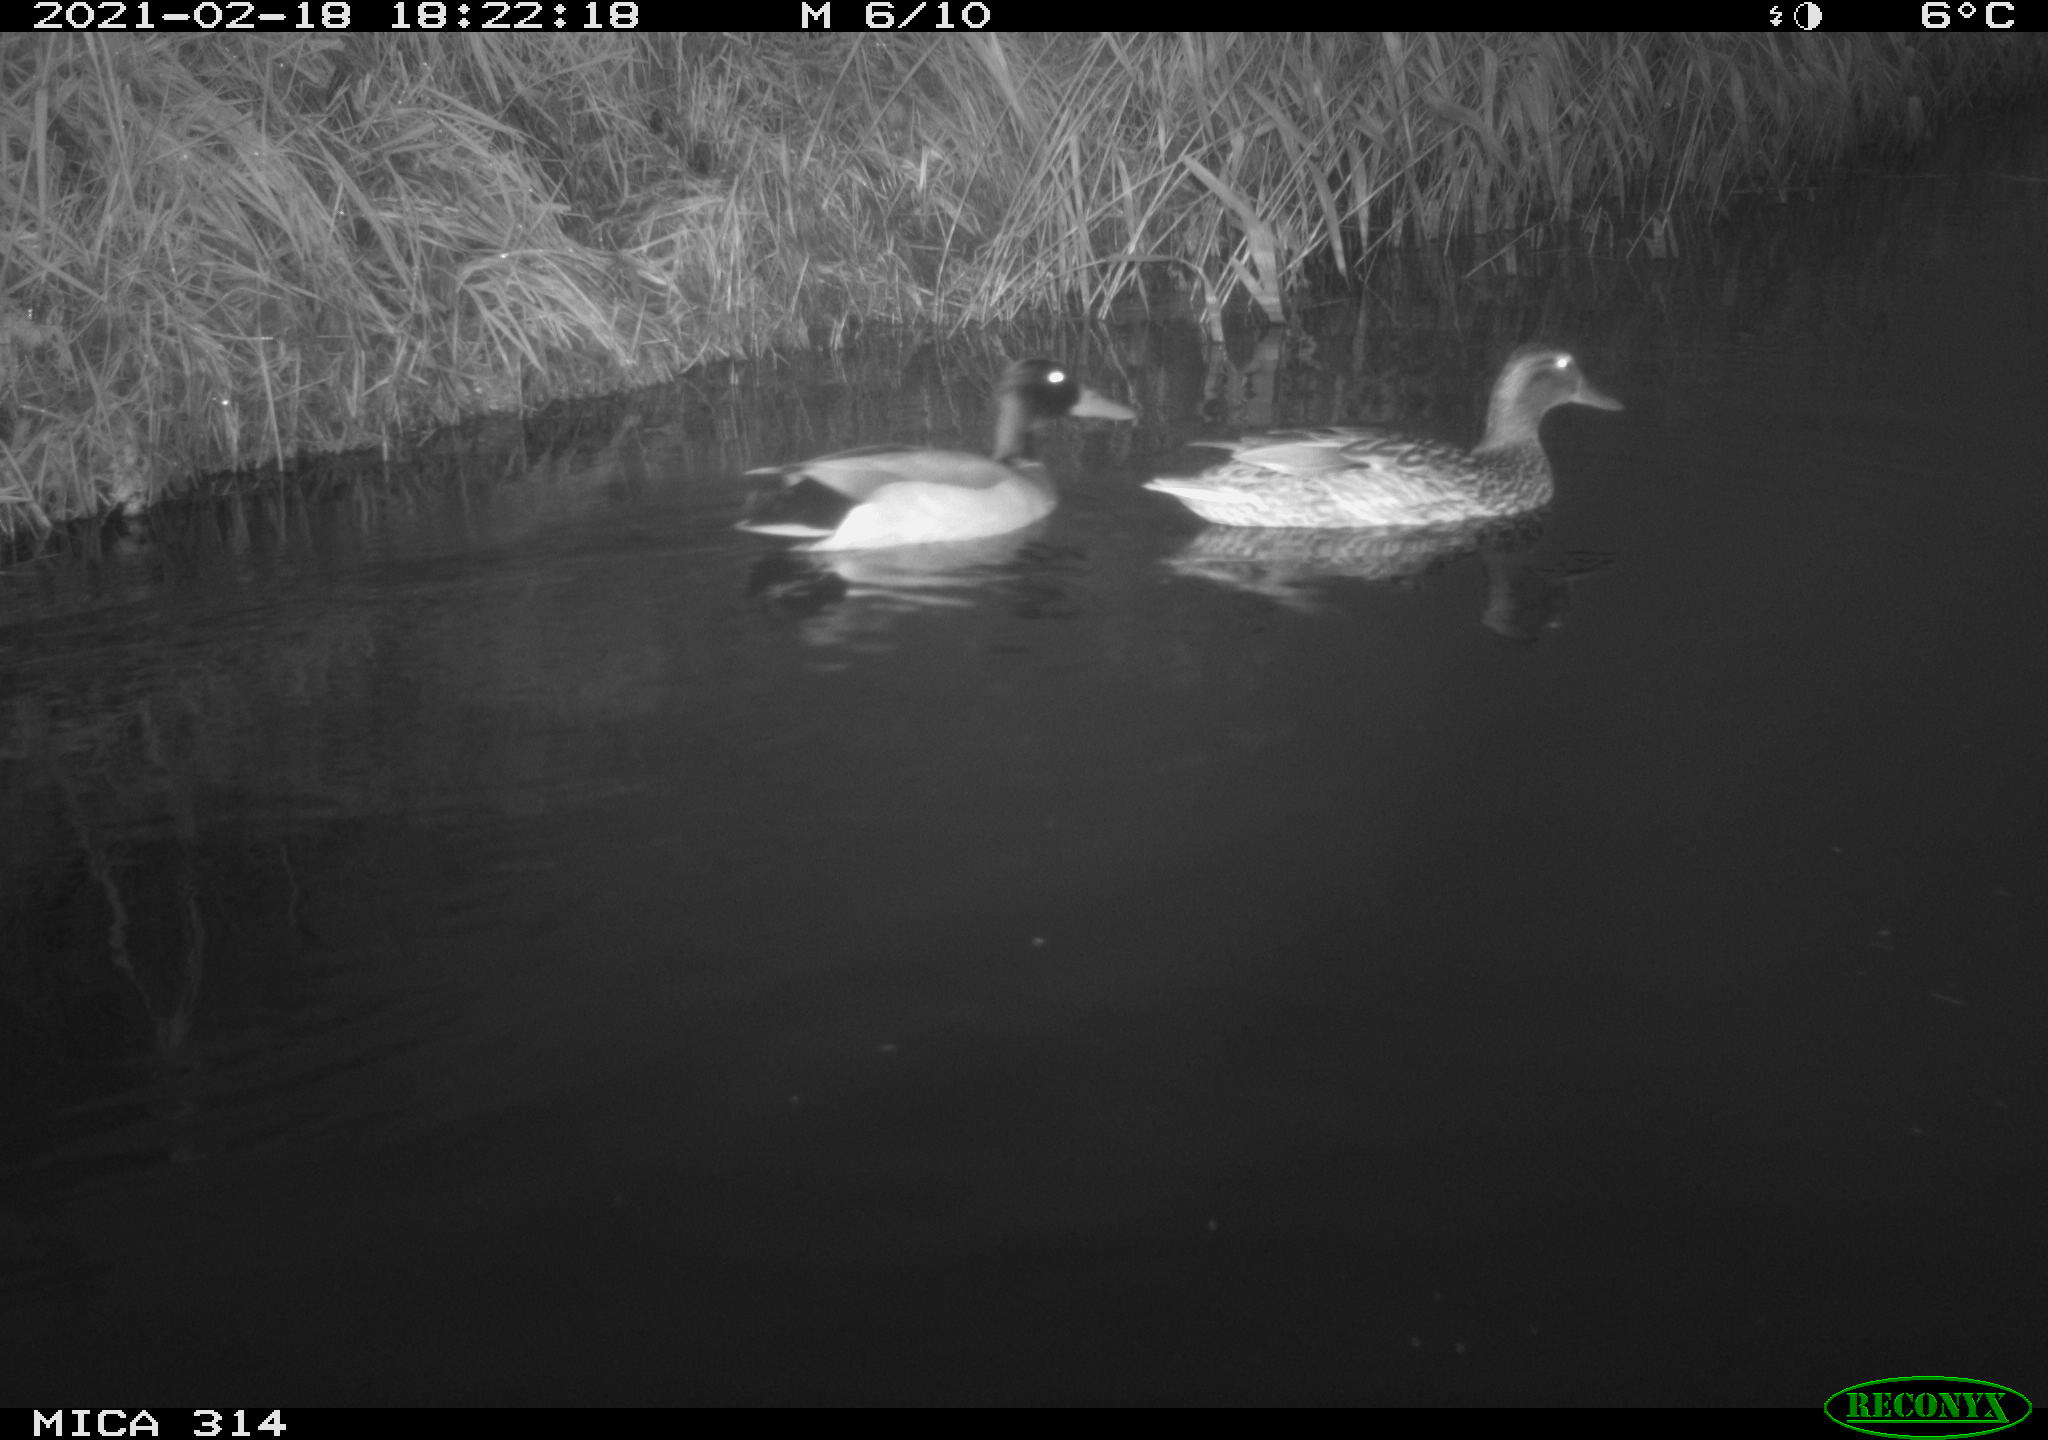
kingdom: Animalia
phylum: Chordata
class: Aves
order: Anseriformes
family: Anatidae
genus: Anas
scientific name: Anas platyrhynchos
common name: Mallard
